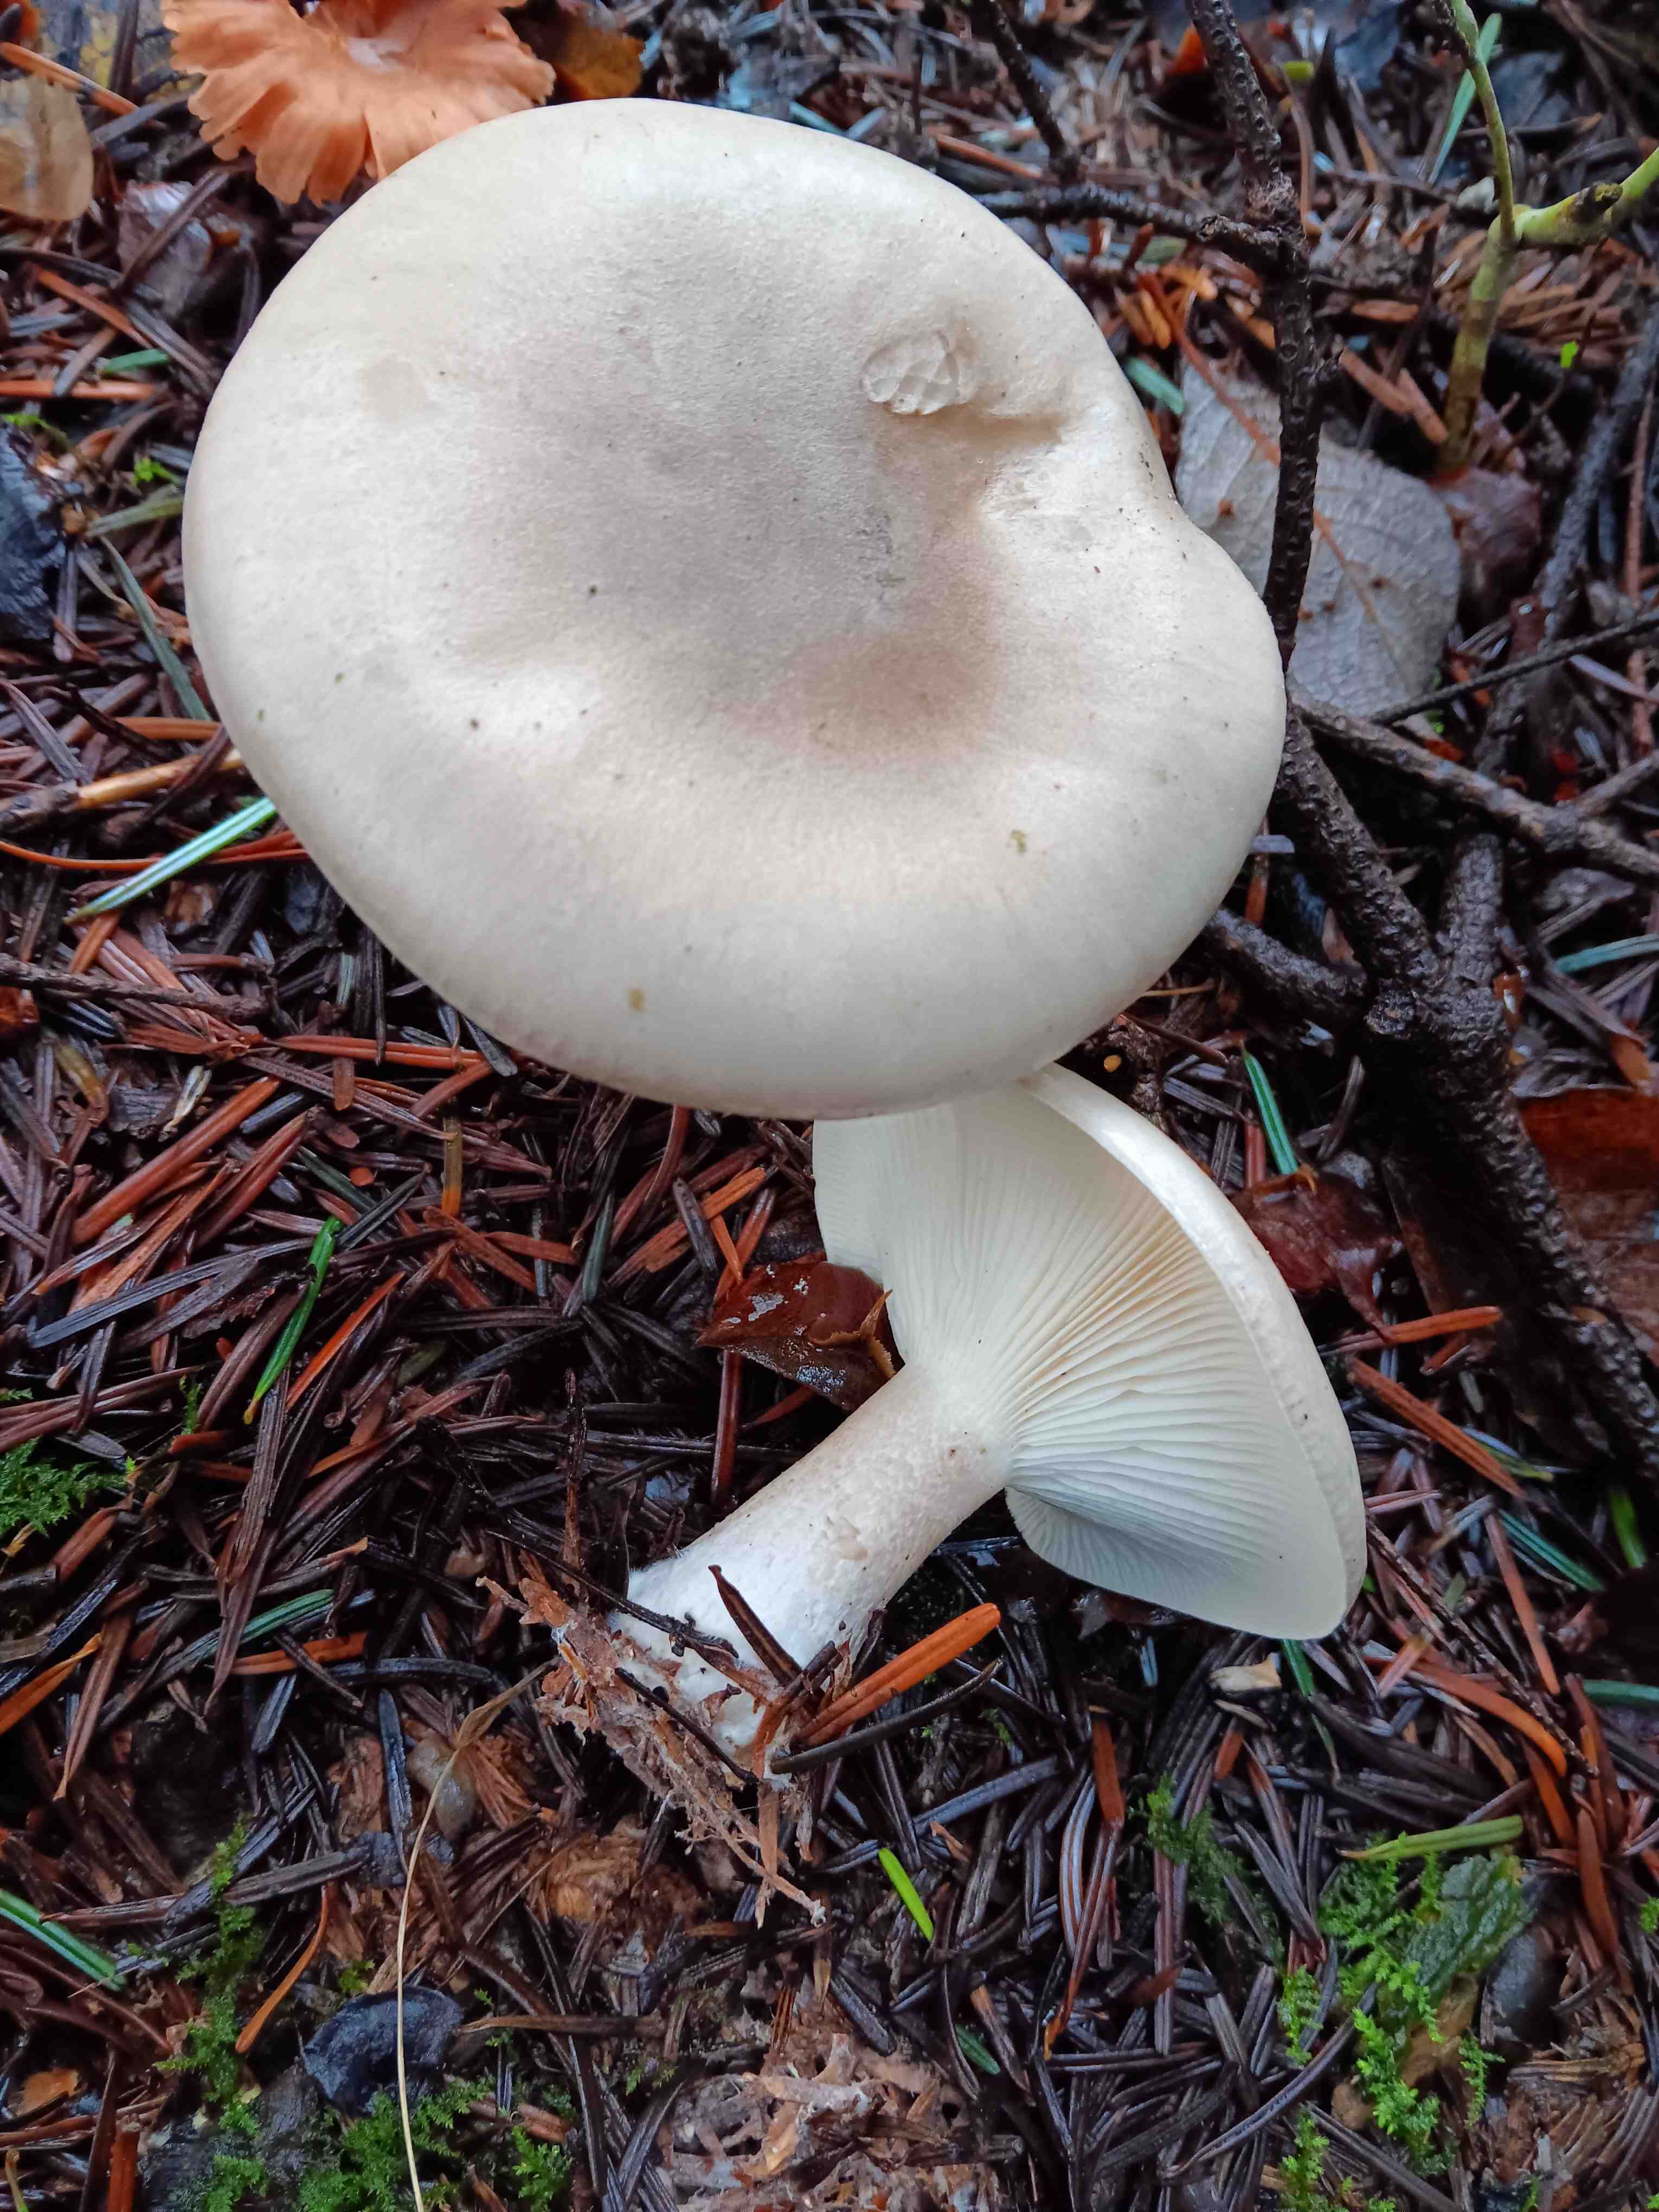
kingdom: Fungi
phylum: Basidiomycota
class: Agaricomycetes
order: Agaricales
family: Tricholomataceae
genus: Clitocybe
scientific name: Clitocybe nebularis
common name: tåge-tragthat
